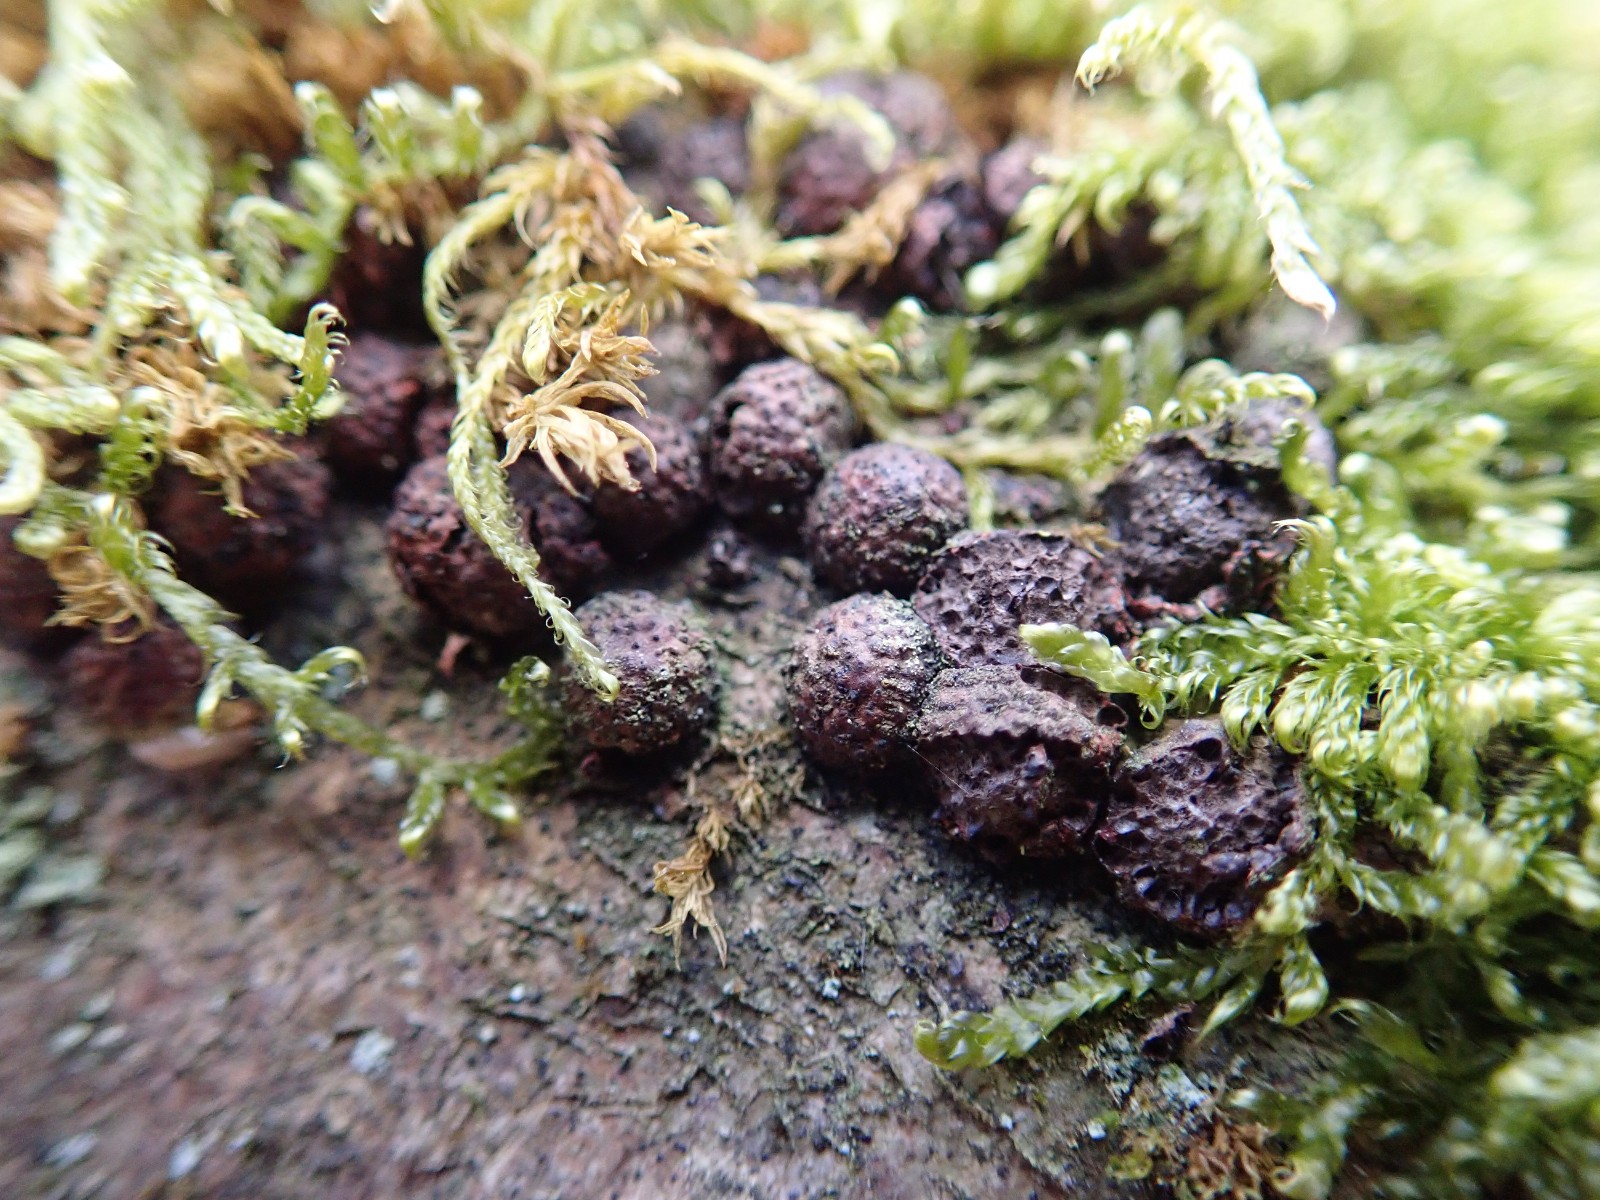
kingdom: Fungi
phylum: Ascomycota
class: Sordariomycetes
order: Xylariales
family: Hypoxylaceae
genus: Hypoxylon
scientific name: Hypoxylon fragiforme
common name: kuljordbær
